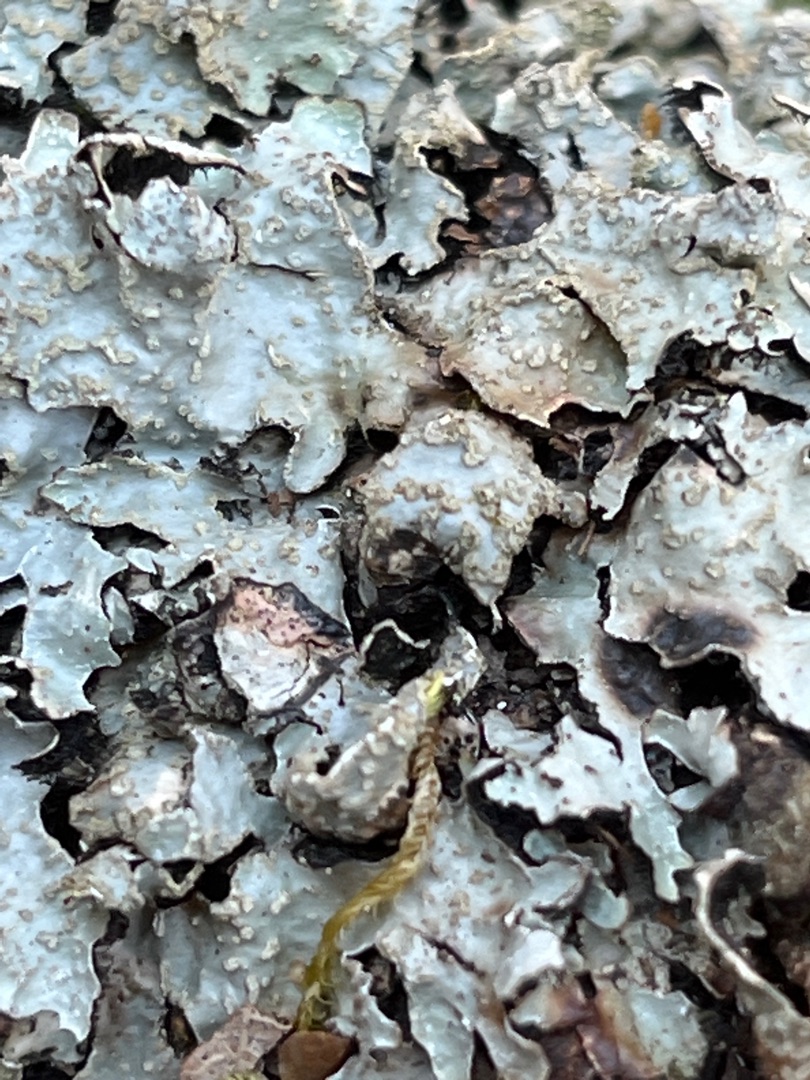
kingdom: Fungi
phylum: Ascomycota
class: Lecanoromycetes
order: Lecanorales
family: Parmeliaceae
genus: Parmelia
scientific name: Parmelia sulcata
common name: Rynket skållav
